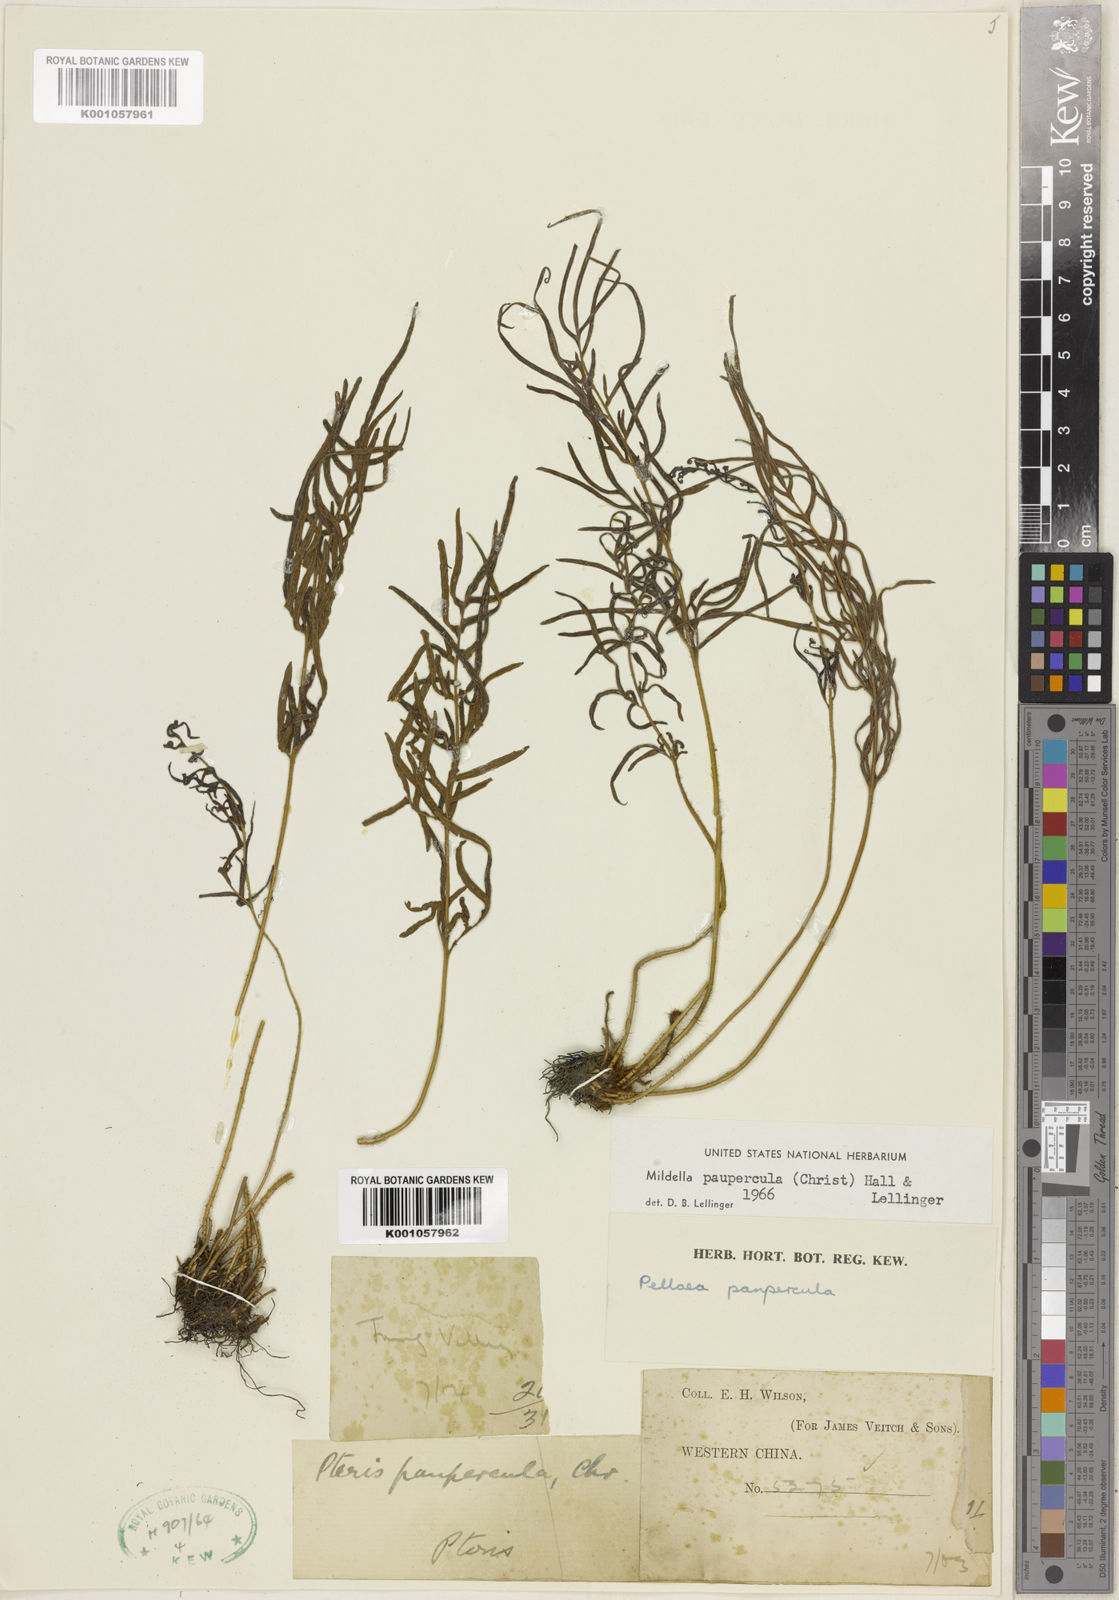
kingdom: Plantae
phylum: Tracheophyta
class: Polypodiopsida
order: Polypodiales
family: Pteridaceae
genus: Oeosporangium
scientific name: Oeosporangium pauperculum
